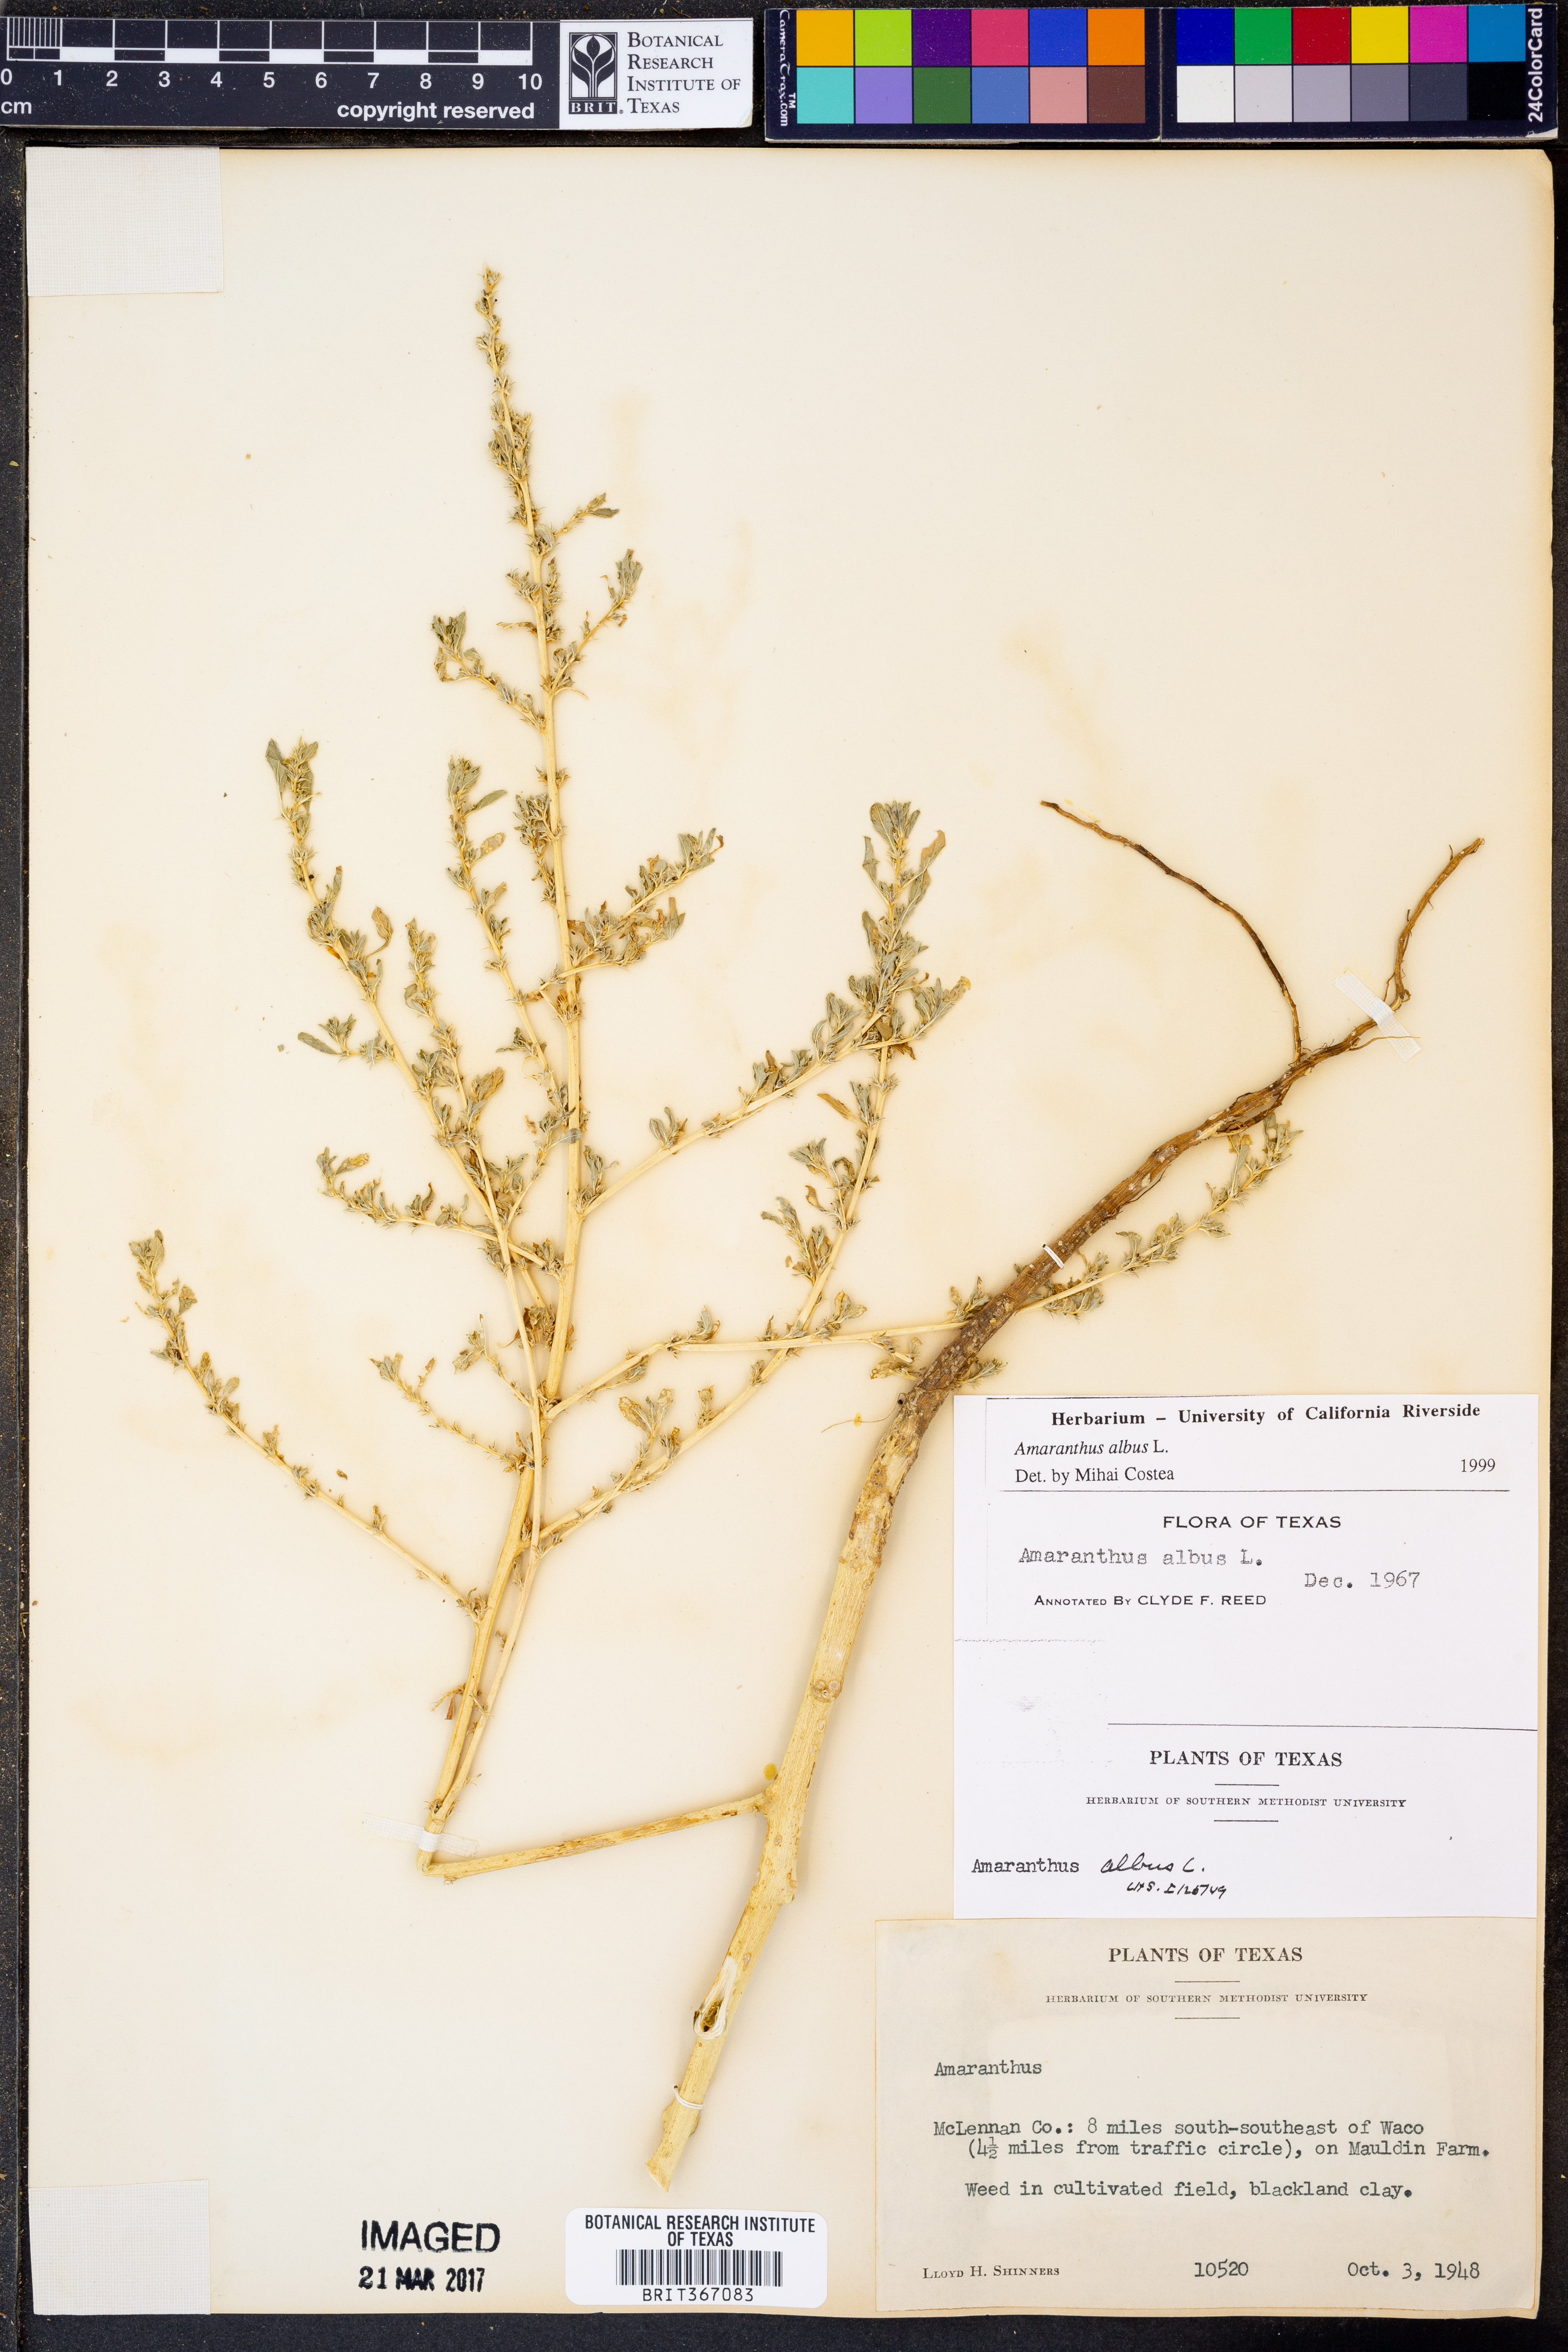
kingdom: Plantae
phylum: Tracheophyta
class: Magnoliopsida
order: Caryophyllales
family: Amaranthaceae
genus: Amaranthus
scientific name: Amaranthus albus
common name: White pigweed
